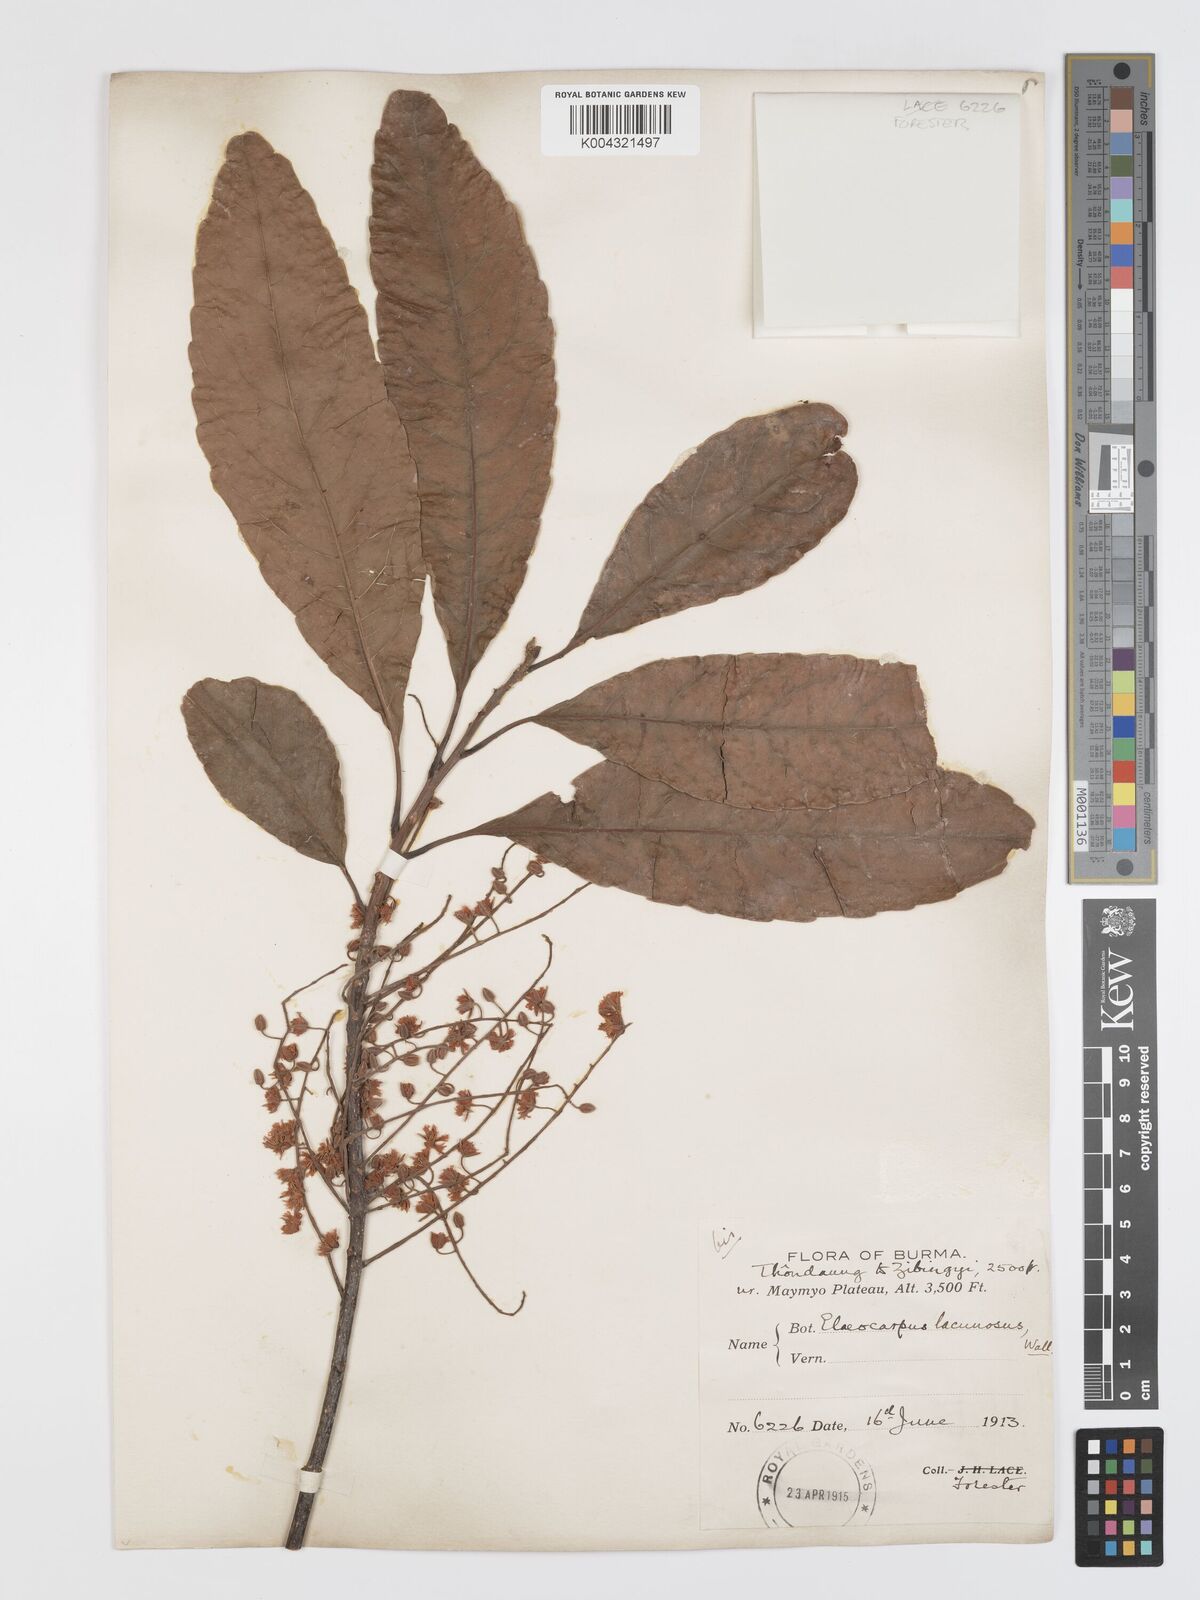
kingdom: Plantae
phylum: Tracheophyta
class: Magnoliopsida
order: Oxalidales
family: Elaeocarpaceae
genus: Elaeocarpus
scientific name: Elaeocarpus lanceifolius
